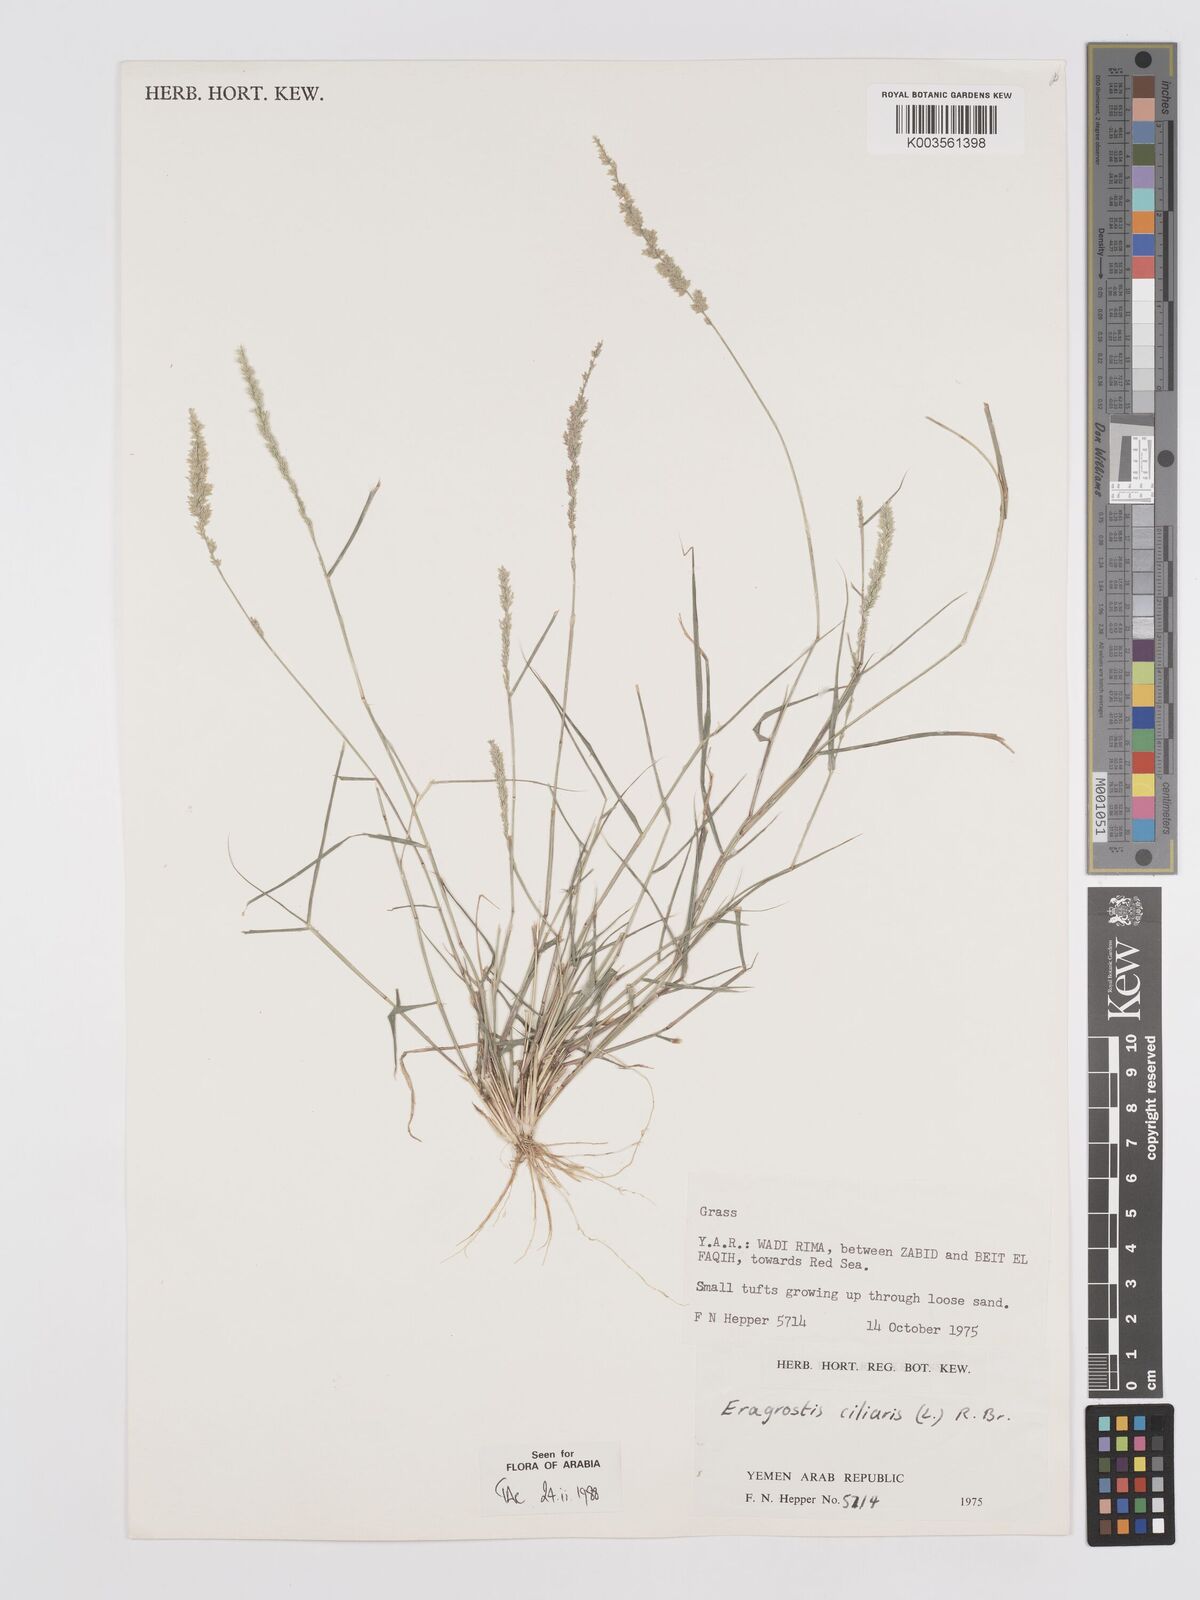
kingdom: Plantae
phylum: Tracheophyta
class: Liliopsida
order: Poales
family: Poaceae
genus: Eragrostis
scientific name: Eragrostis ciliaris
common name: Gophertail lovegrass
